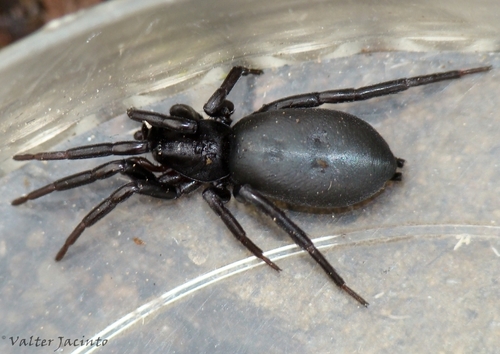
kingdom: Animalia
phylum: Arthropoda
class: Arachnida
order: Araneae
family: Gnaphosidae
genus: Marinarozelotes
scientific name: Marinarozelotes bardiae
